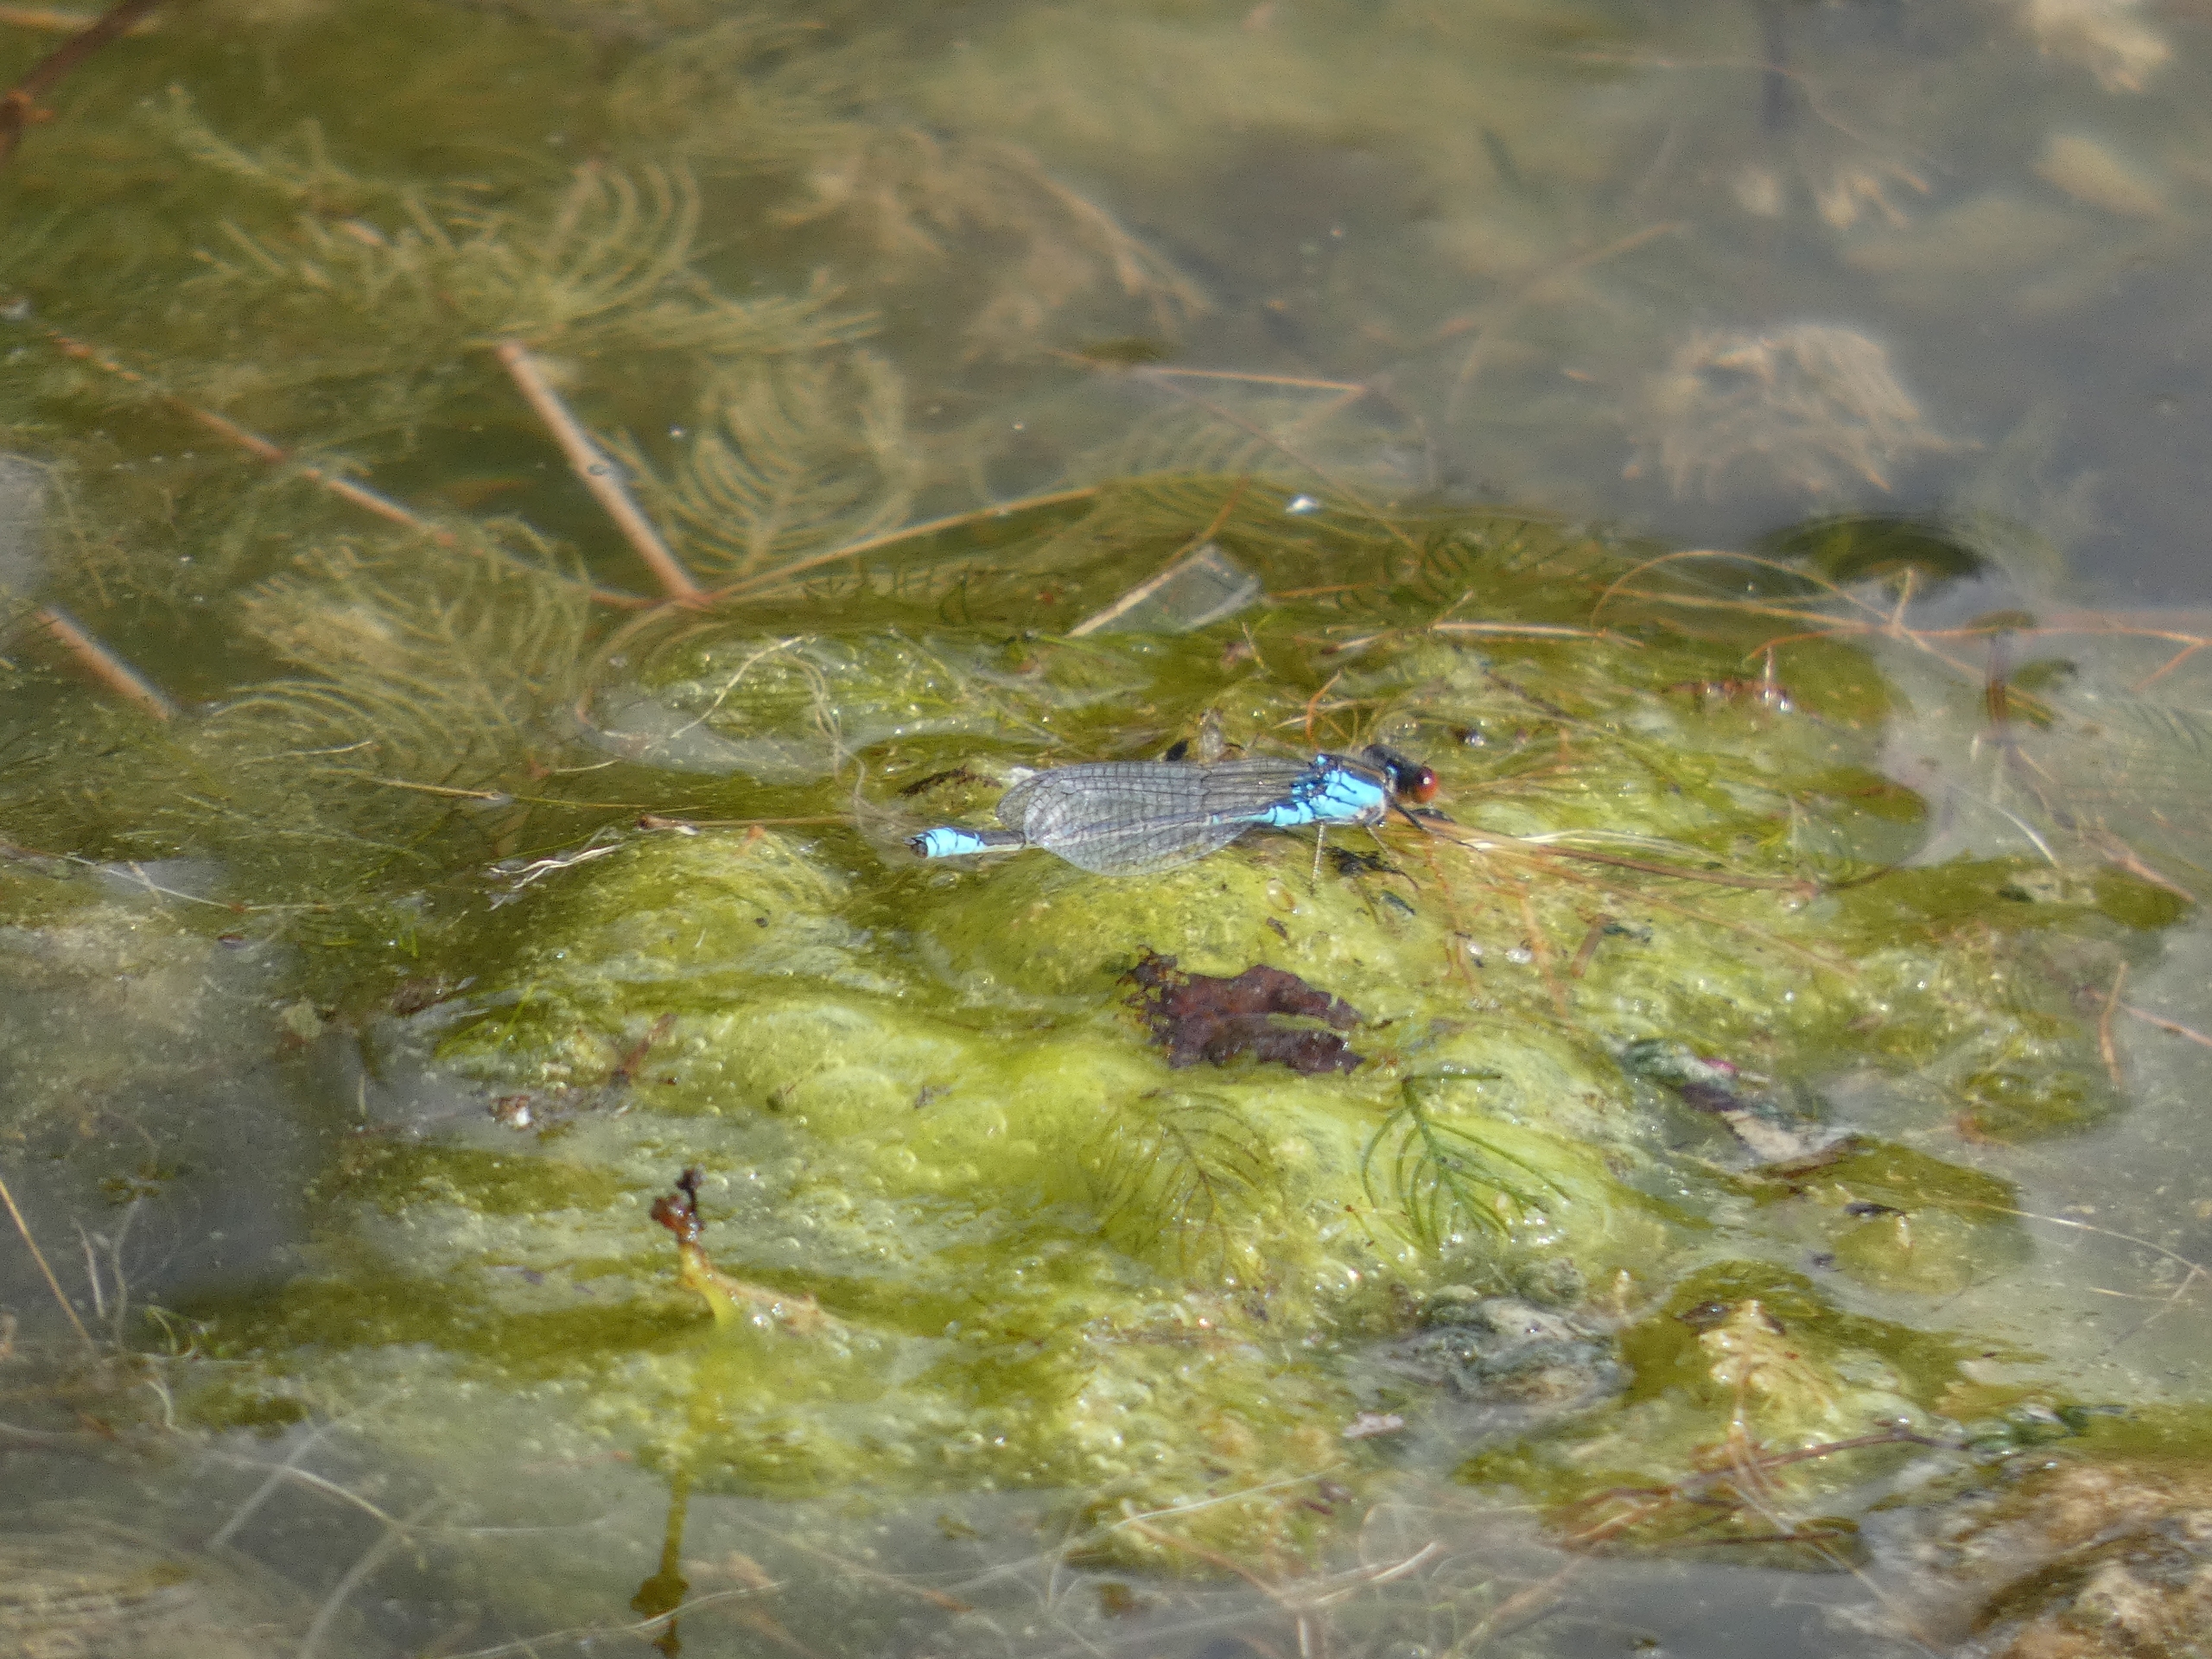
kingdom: Animalia
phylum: Arthropoda
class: Insecta
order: Odonata
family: Coenagrionidae
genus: Erythromma
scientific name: Erythromma viridulum
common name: Lille rødøjet vandnymfe
